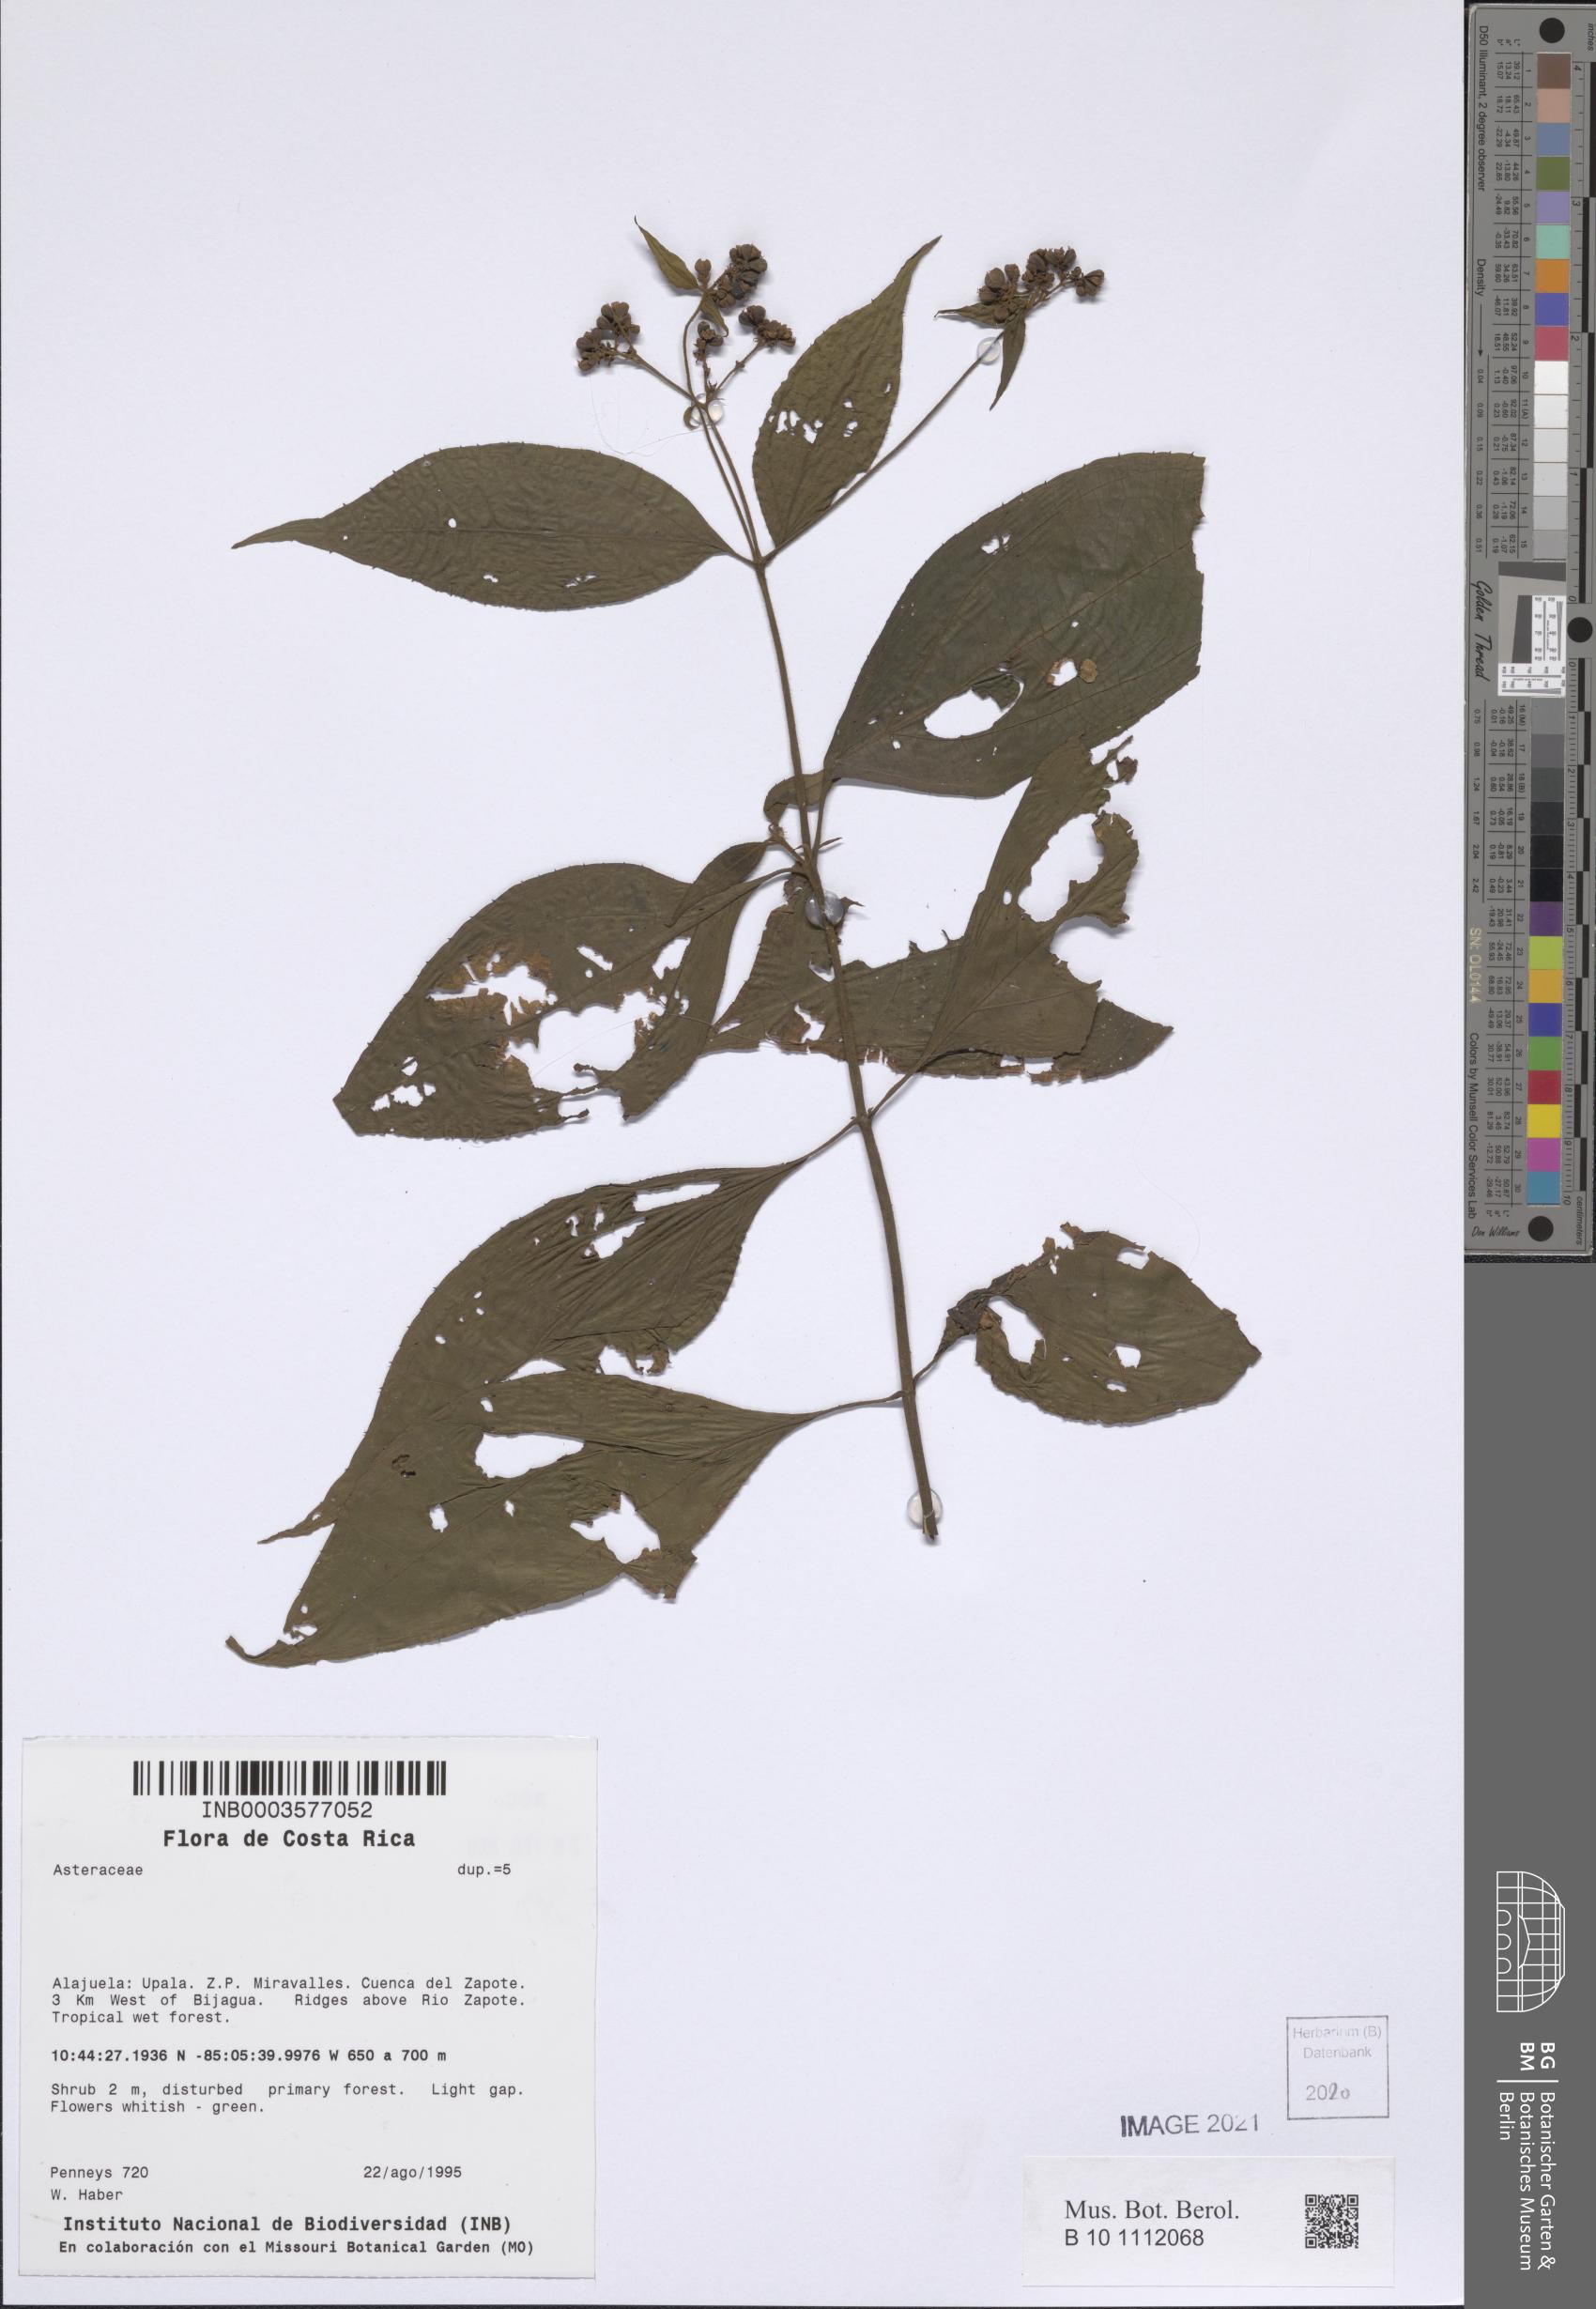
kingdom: Plantae
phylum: Tracheophyta
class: Magnoliopsida
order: Asterales
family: Asteraceae
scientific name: Asteraceae
